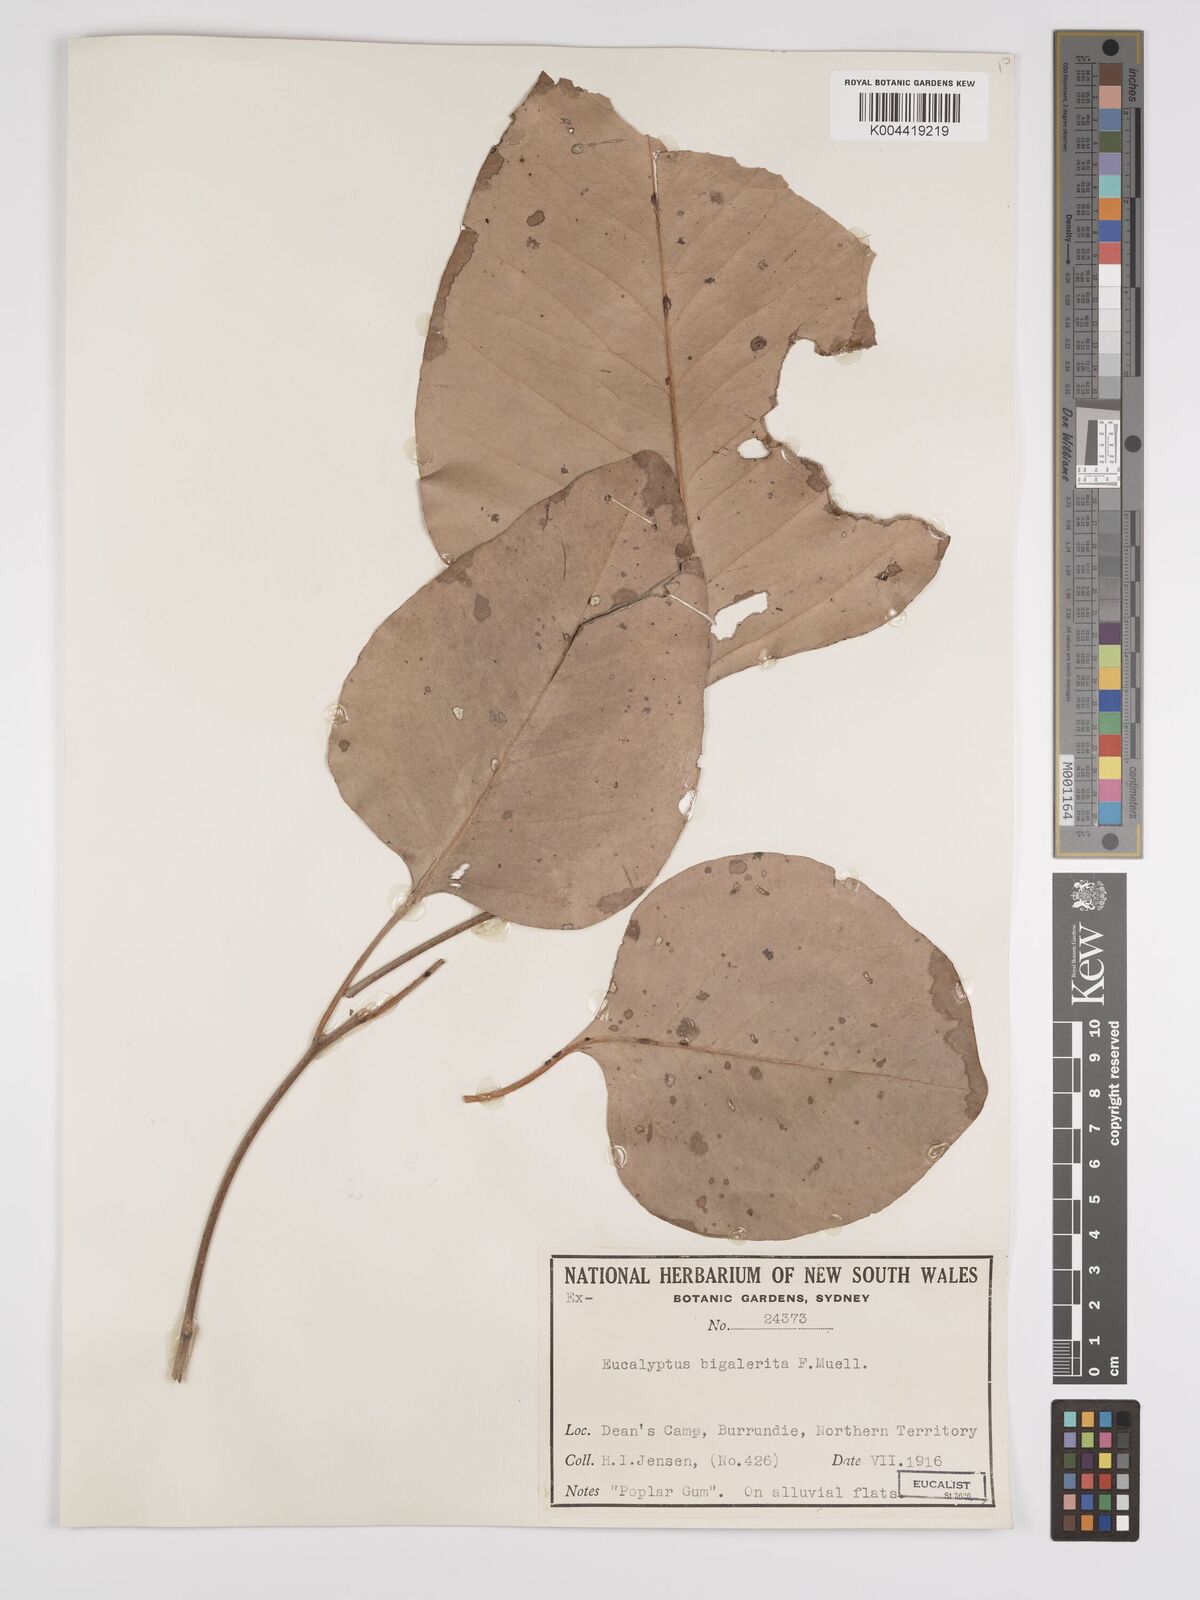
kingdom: Plantae
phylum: Tracheophyta
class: Magnoliopsida
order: Myrtales
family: Myrtaceae
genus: Eucalyptus
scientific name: Eucalyptus bigalerita
